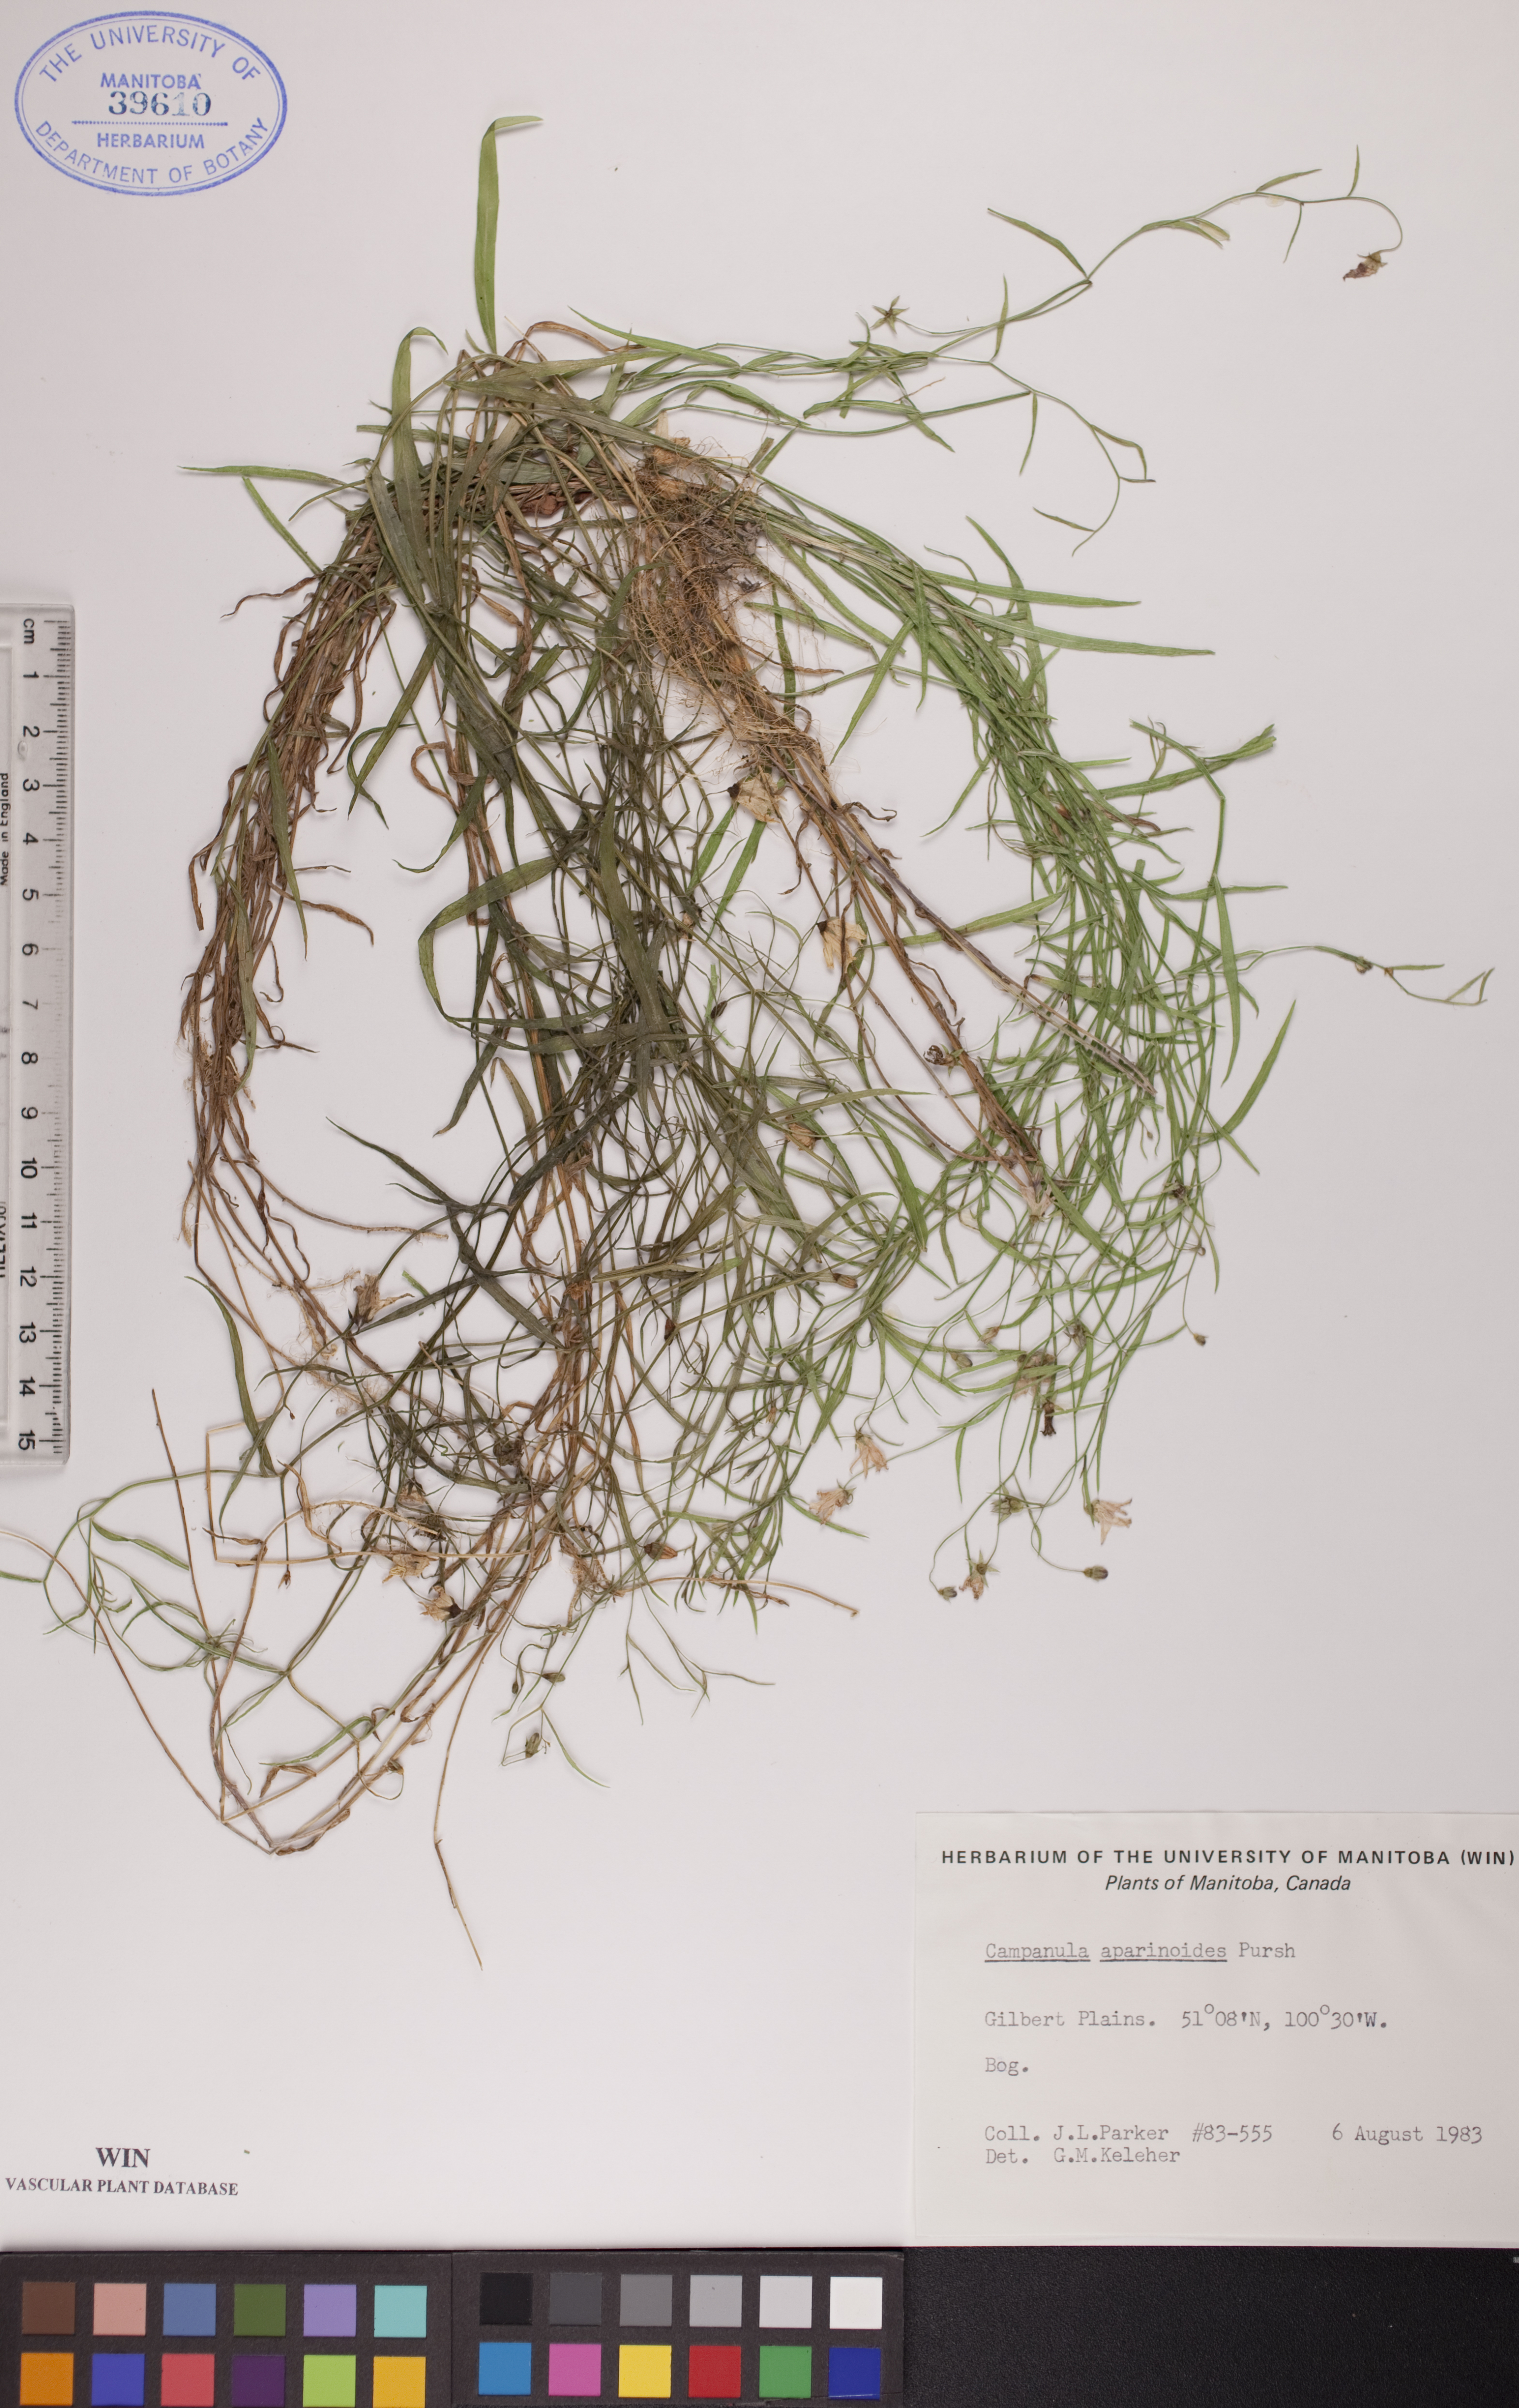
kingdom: Plantae
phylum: Tracheophyta
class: Magnoliopsida
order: Asterales
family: Campanulaceae
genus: Palustricodon
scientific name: Palustricodon aparinoides
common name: Bedstraw bellflower
